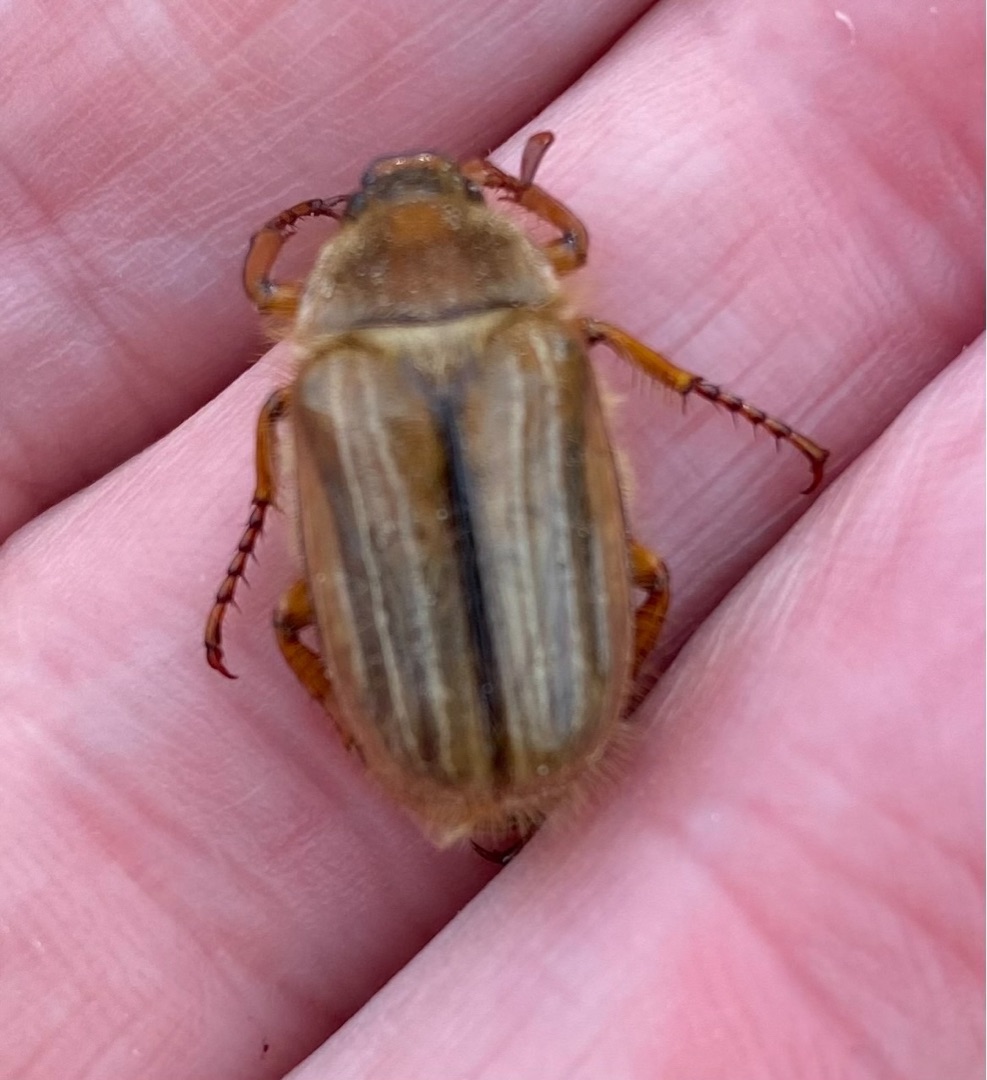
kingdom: Animalia
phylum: Arthropoda
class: Insecta
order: Coleoptera
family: Scarabaeidae
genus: Amphimallon
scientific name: Amphimallon solstitiale
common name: Sankthansoldenborre
